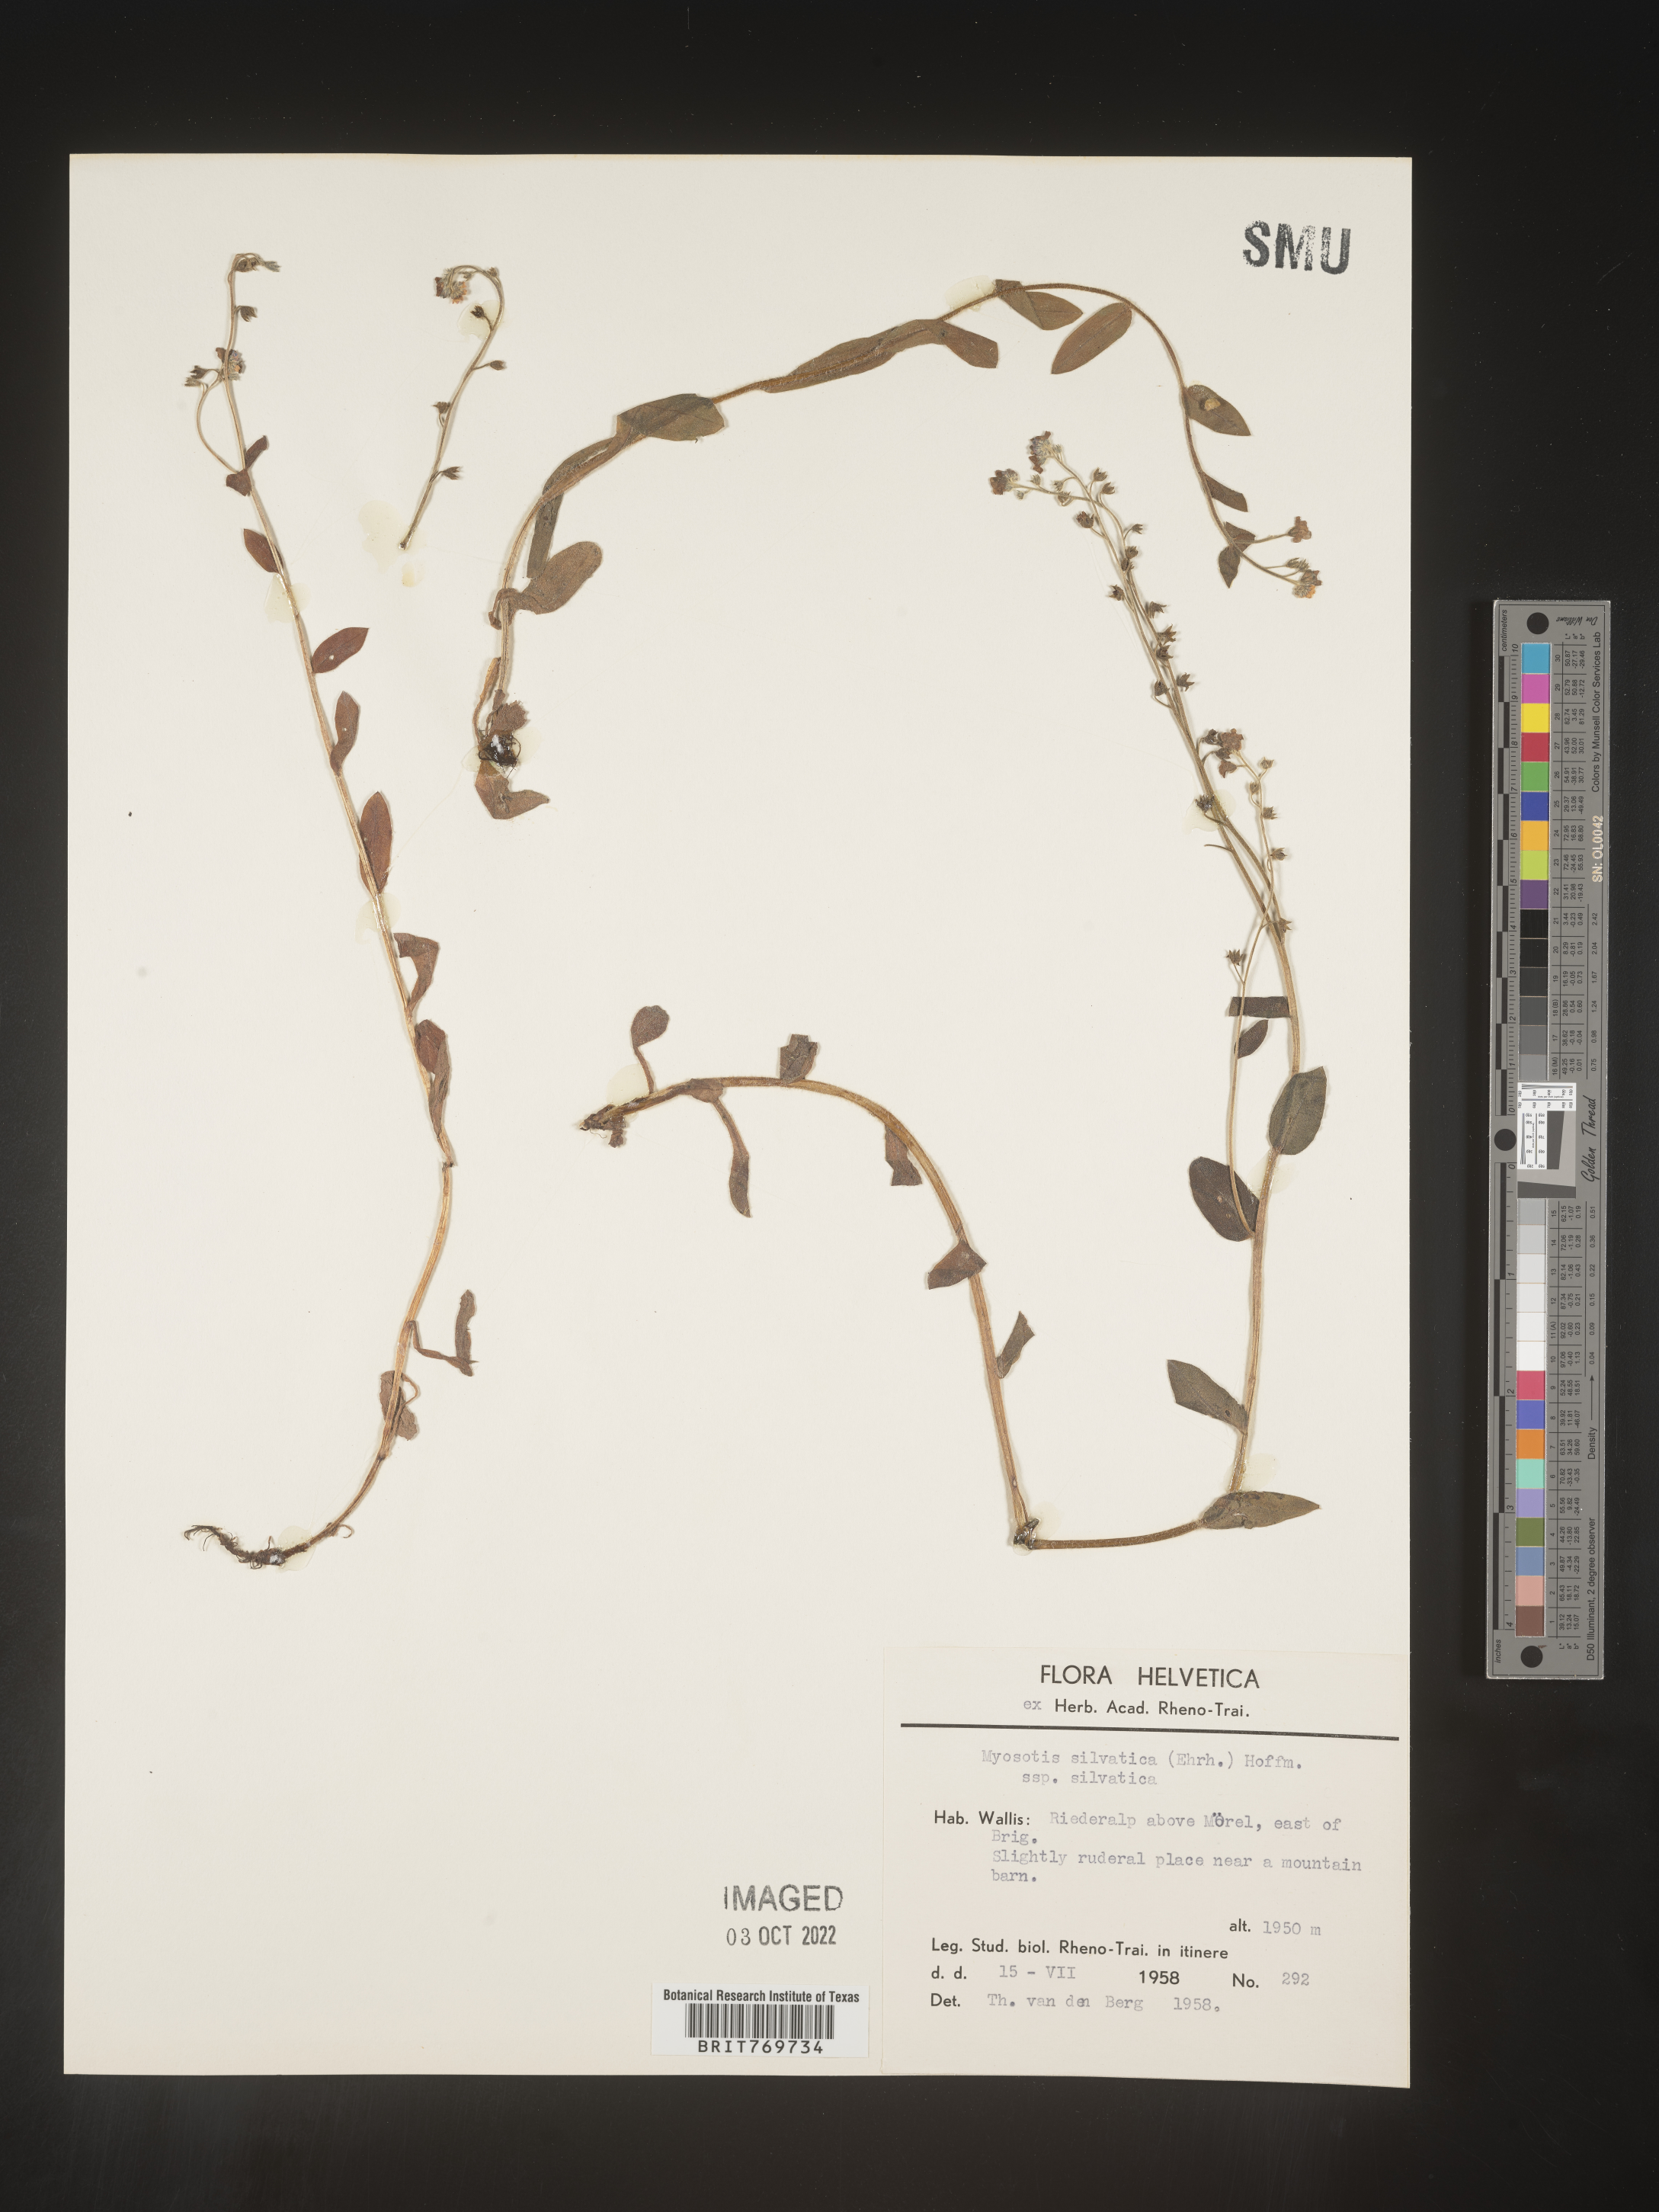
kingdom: Plantae
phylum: Tracheophyta
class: Magnoliopsida
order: Boraginales
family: Boraginaceae
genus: Myosotis
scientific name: Myosotis
